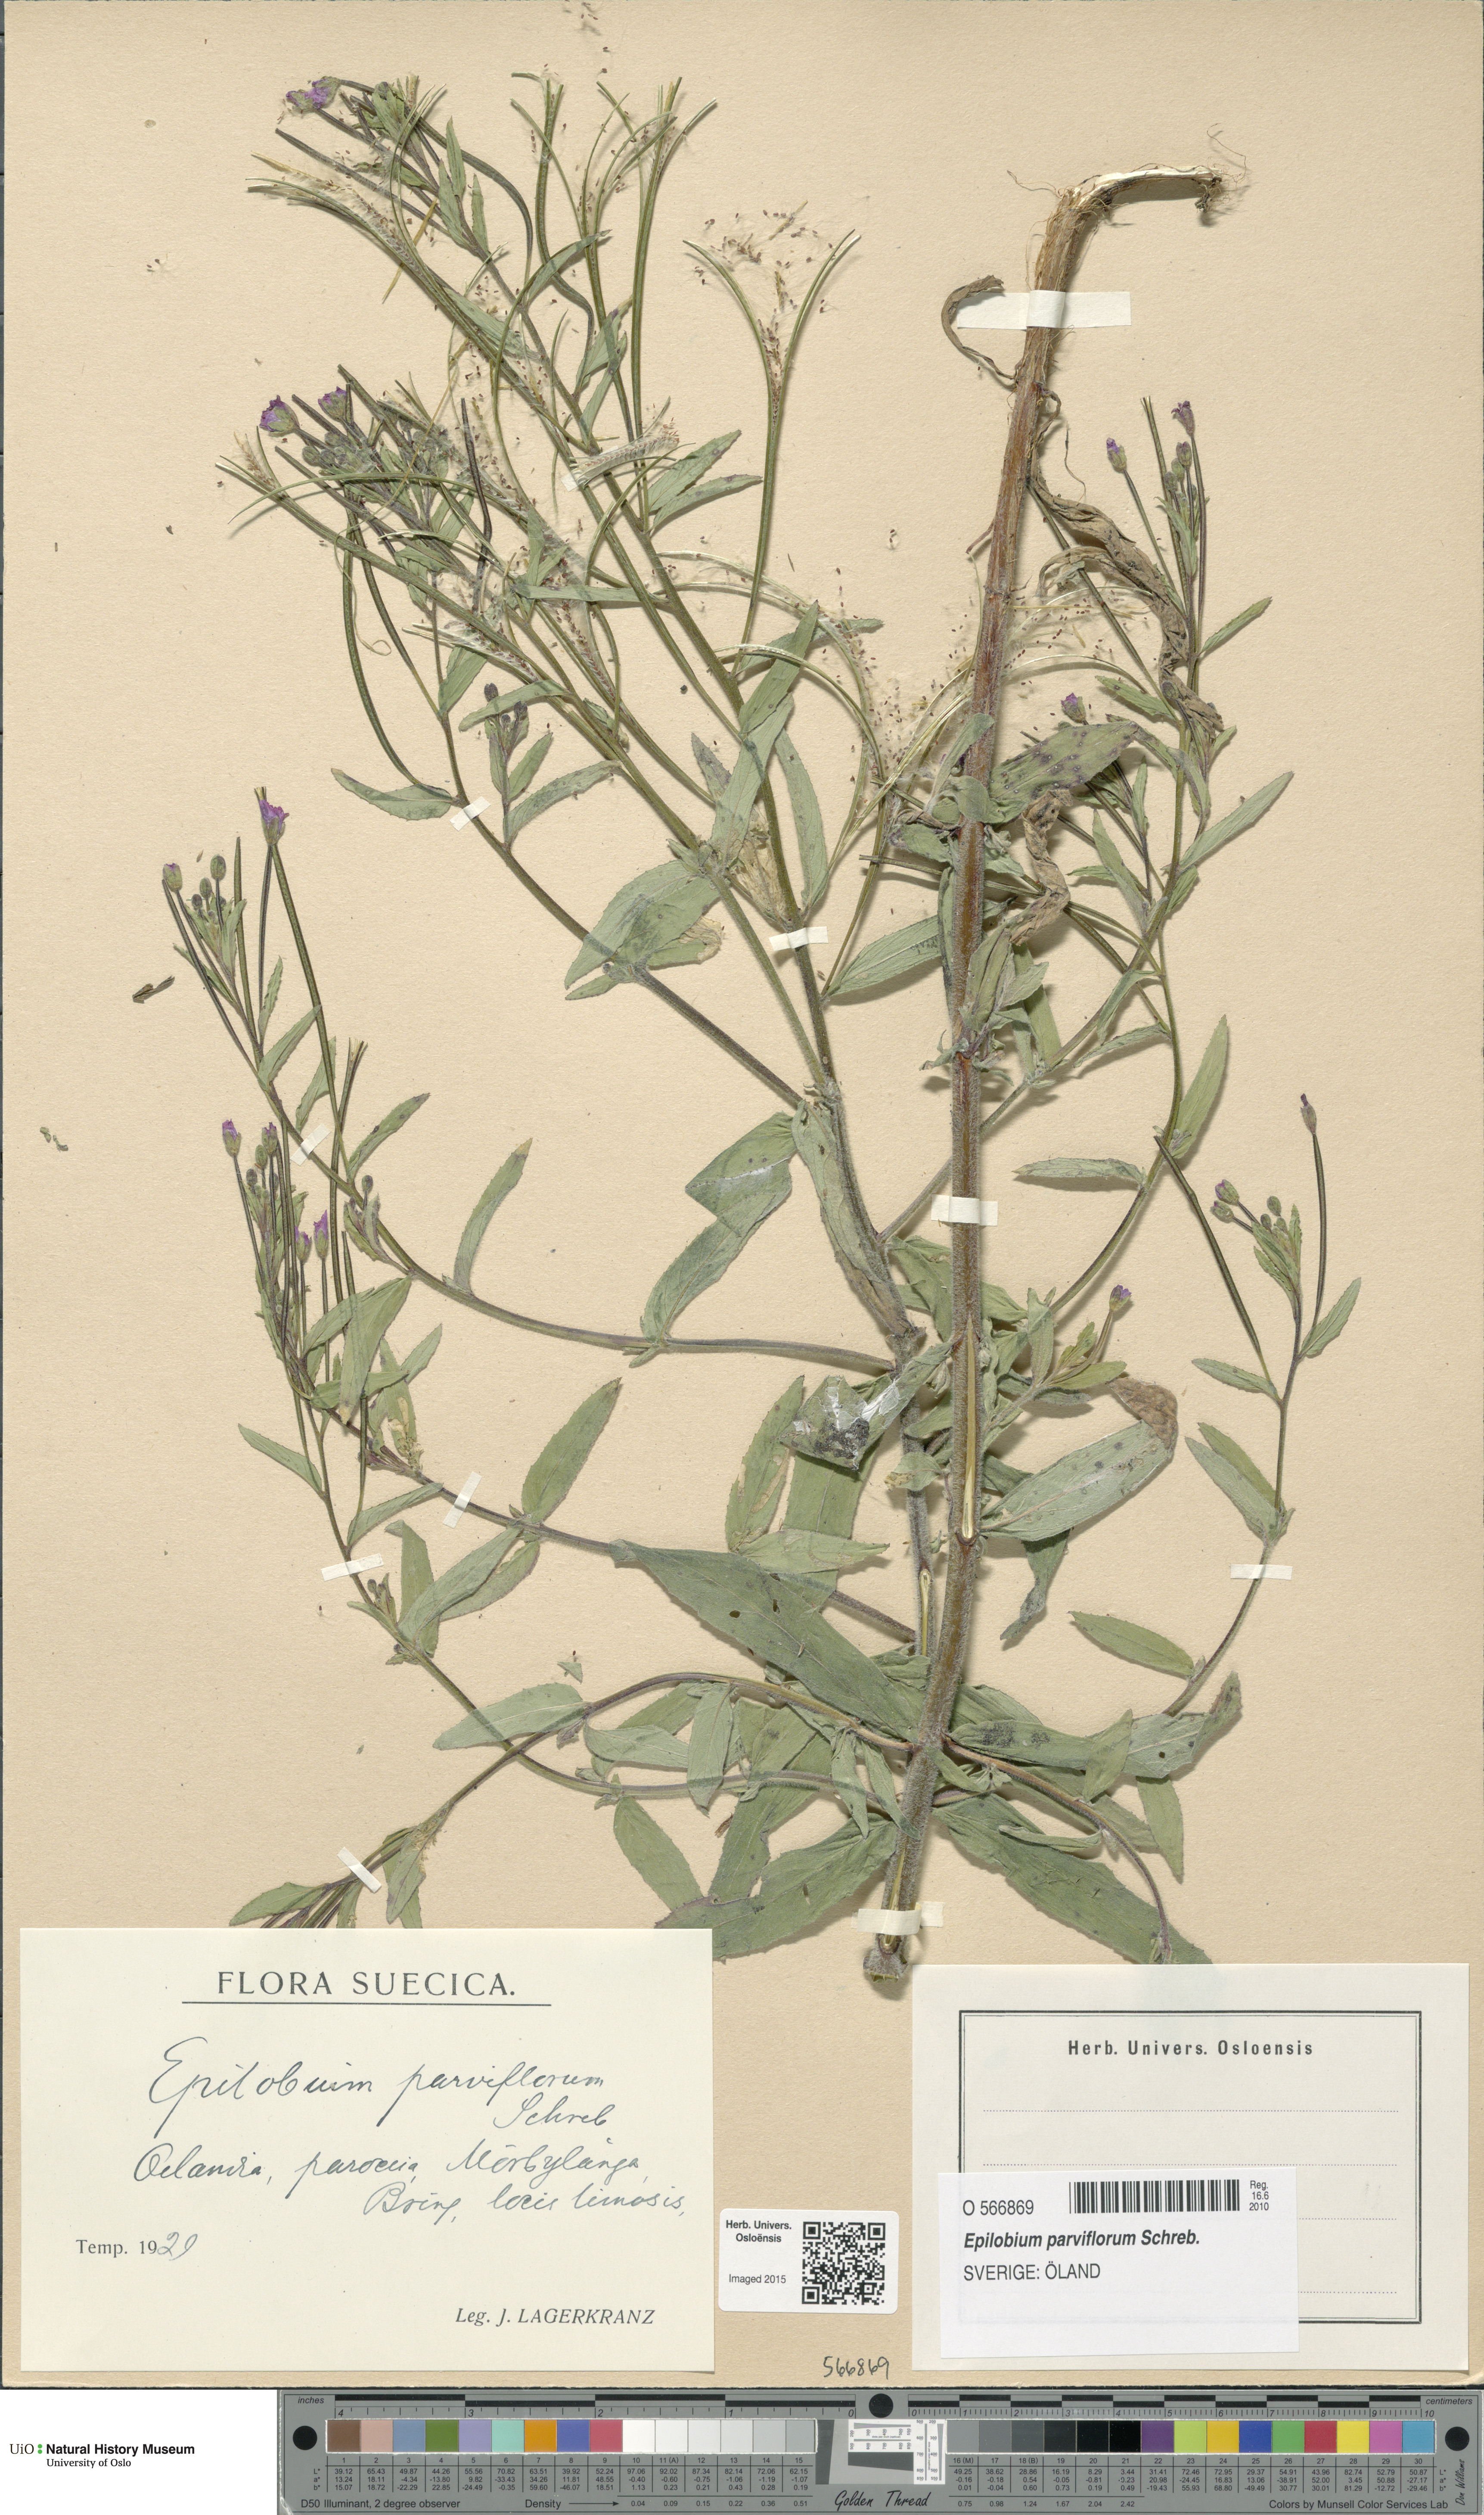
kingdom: Plantae
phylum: Tracheophyta
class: Magnoliopsida
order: Myrtales
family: Onagraceae
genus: Epilobium
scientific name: Epilobium parviflorum
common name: Hoary willowherb
